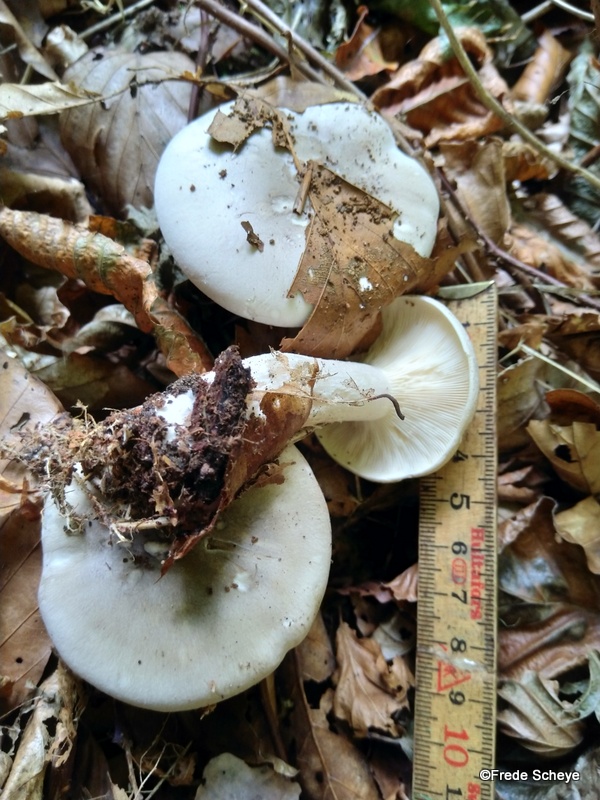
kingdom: Fungi
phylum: Basidiomycota
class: Agaricomycetes
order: Agaricales
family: Tricholomataceae
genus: Clitocybe
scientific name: Clitocybe nebularis
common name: tåge-tragthat
